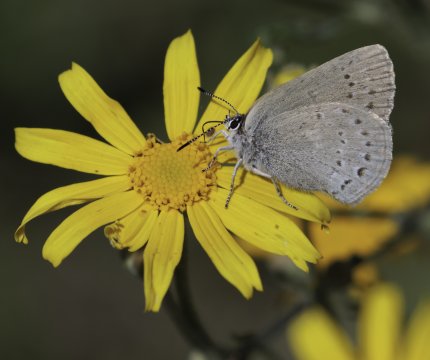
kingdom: Animalia
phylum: Arthropoda
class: Insecta
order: Lepidoptera
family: Lycaenidae
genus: Satyrium
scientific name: Satyrium fuliginosa
